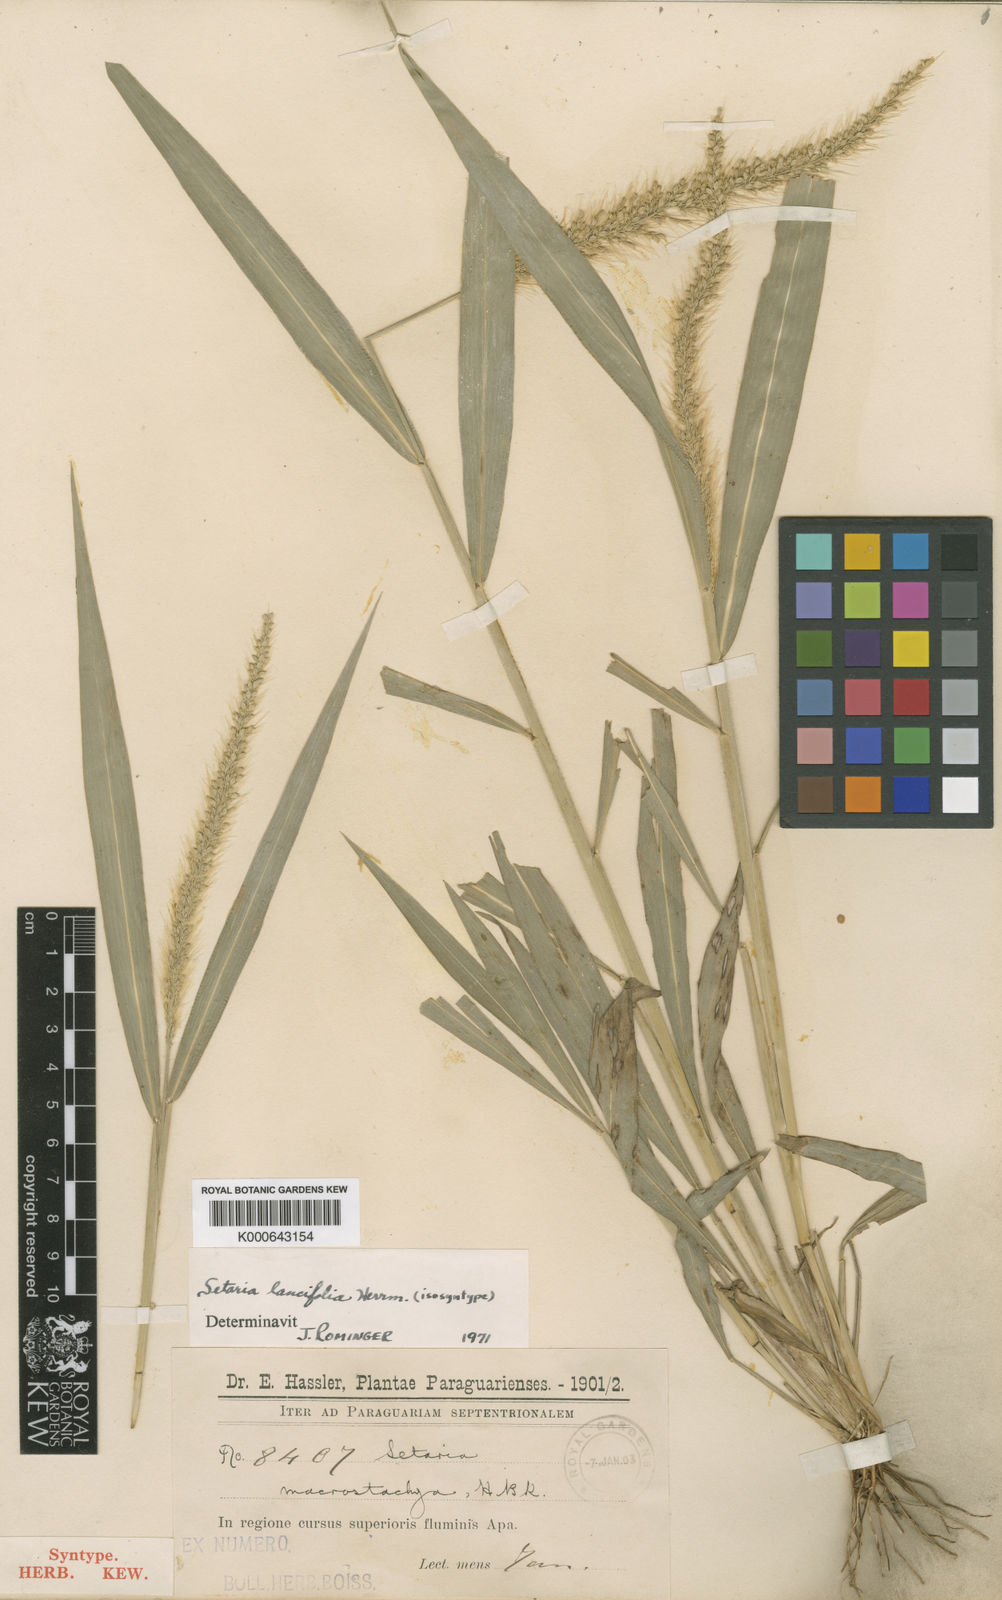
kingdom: Plantae
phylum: Tracheophyta
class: Liliopsida
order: Poales
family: Poaceae
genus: Setaria
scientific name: Setaria vulpiseta
